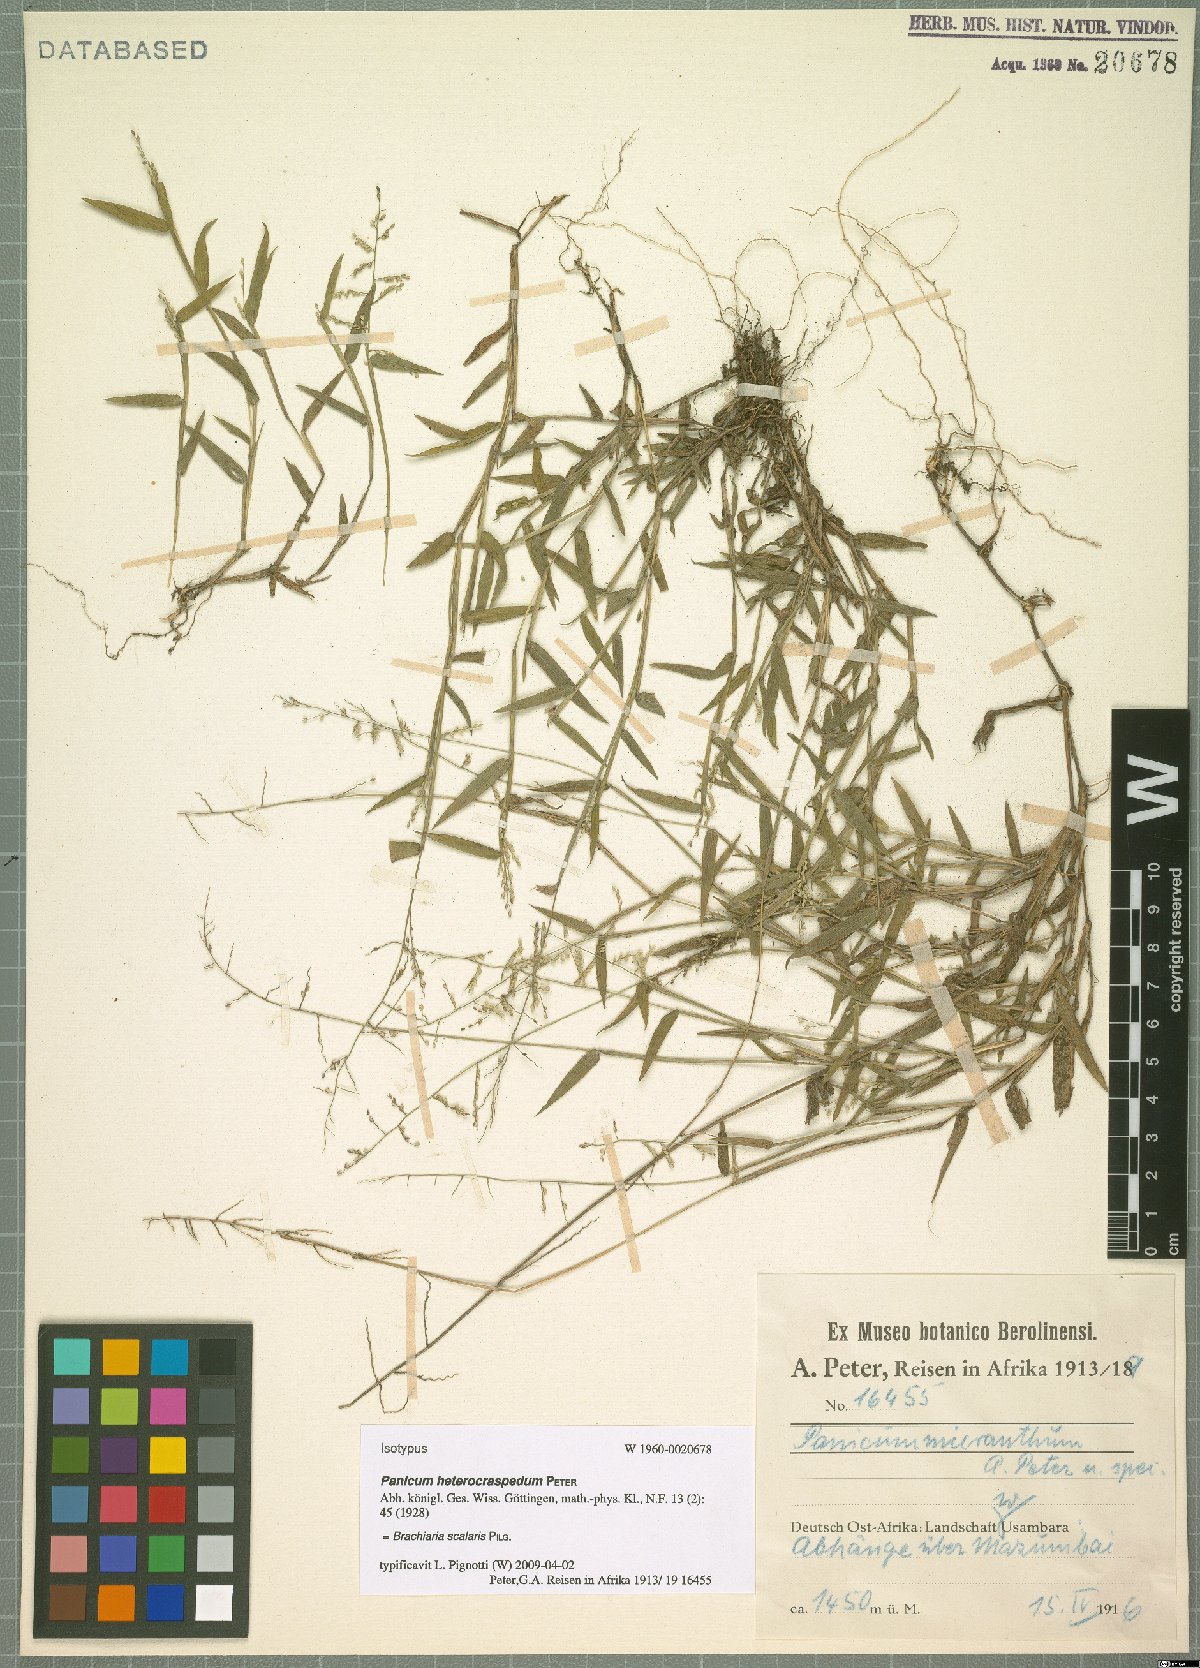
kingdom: Plantae
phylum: Tracheophyta
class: Liliopsida
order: Poales
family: Poaceae
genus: Urochloa
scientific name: Urochloa comata
